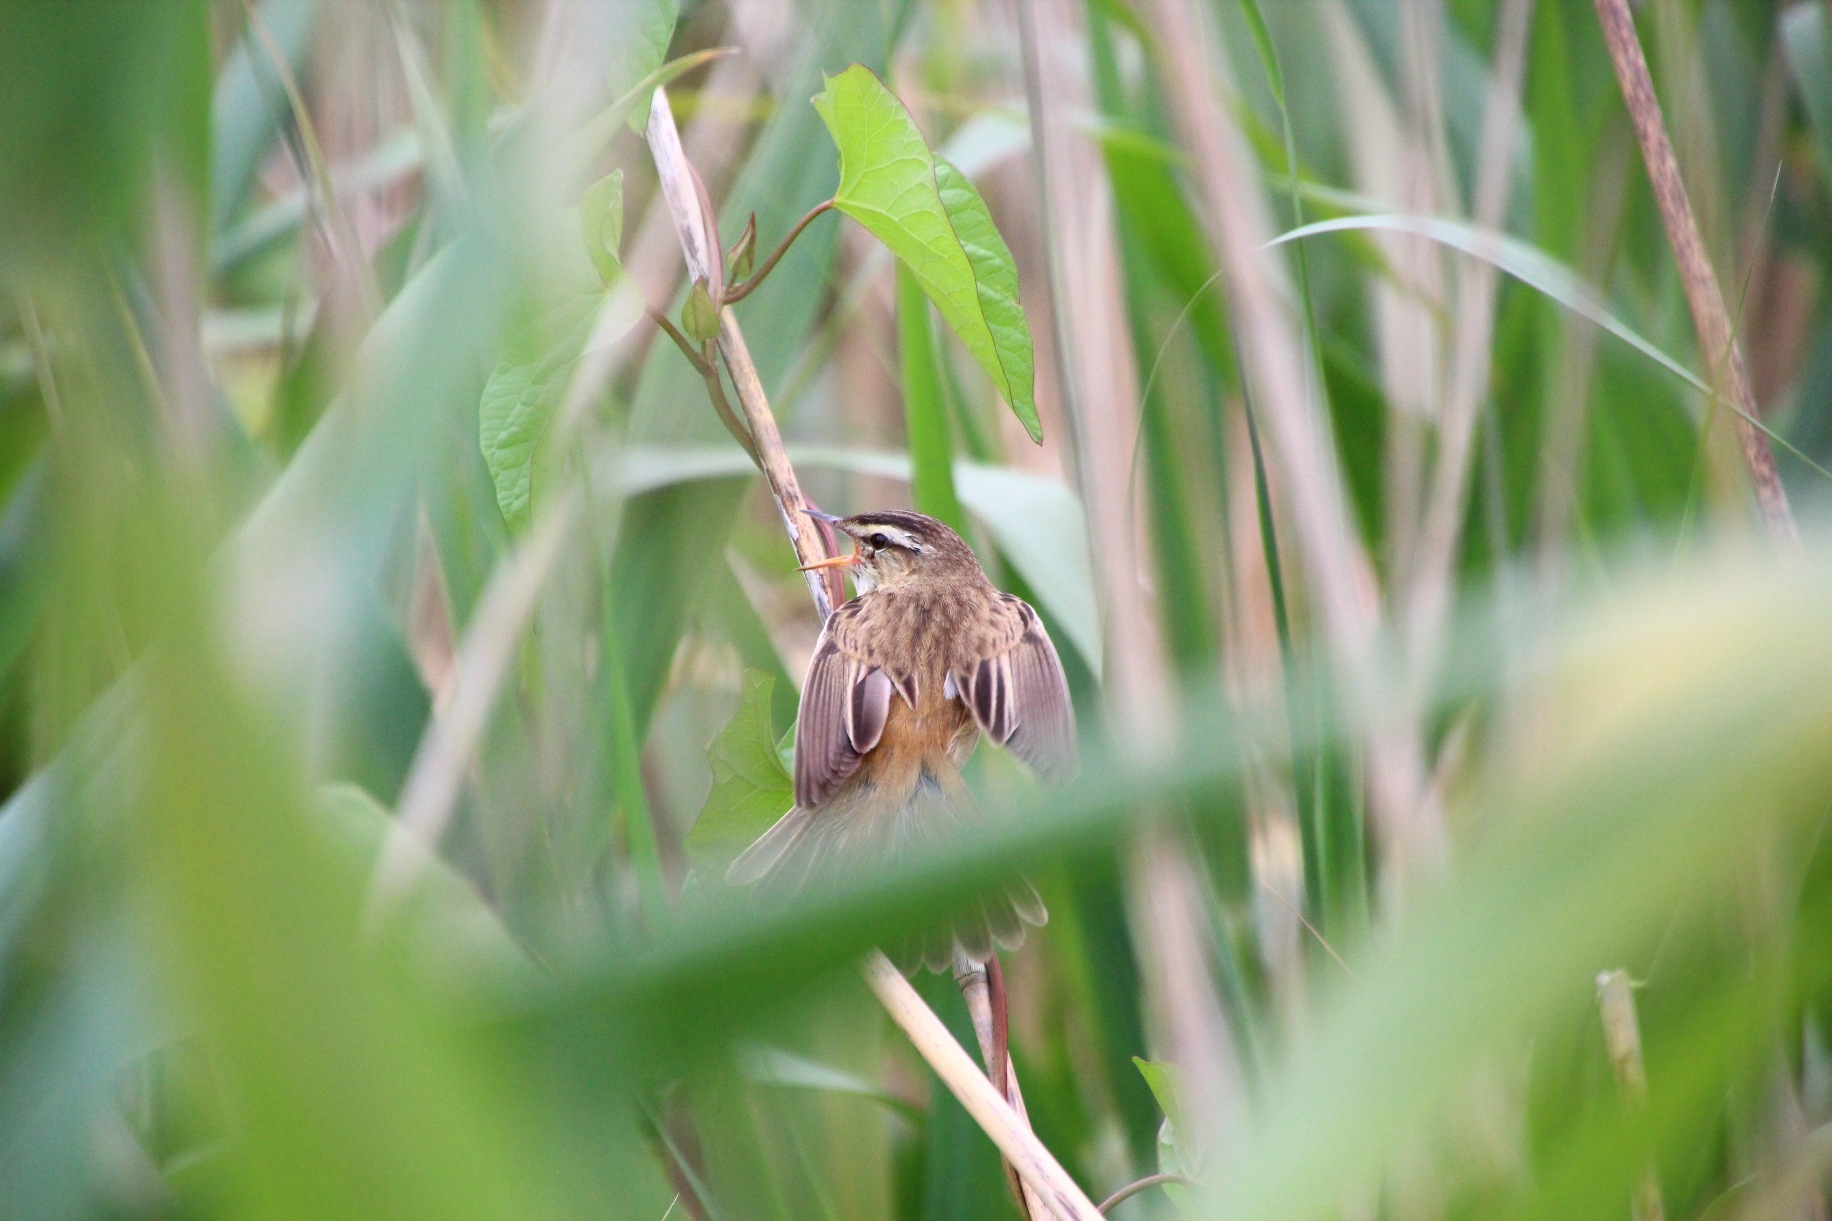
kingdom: Animalia
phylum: Chordata
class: Aves
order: Passeriformes
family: Acrocephalidae
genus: Acrocephalus
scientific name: Acrocephalus schoenobaenus
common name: Sivsanger
